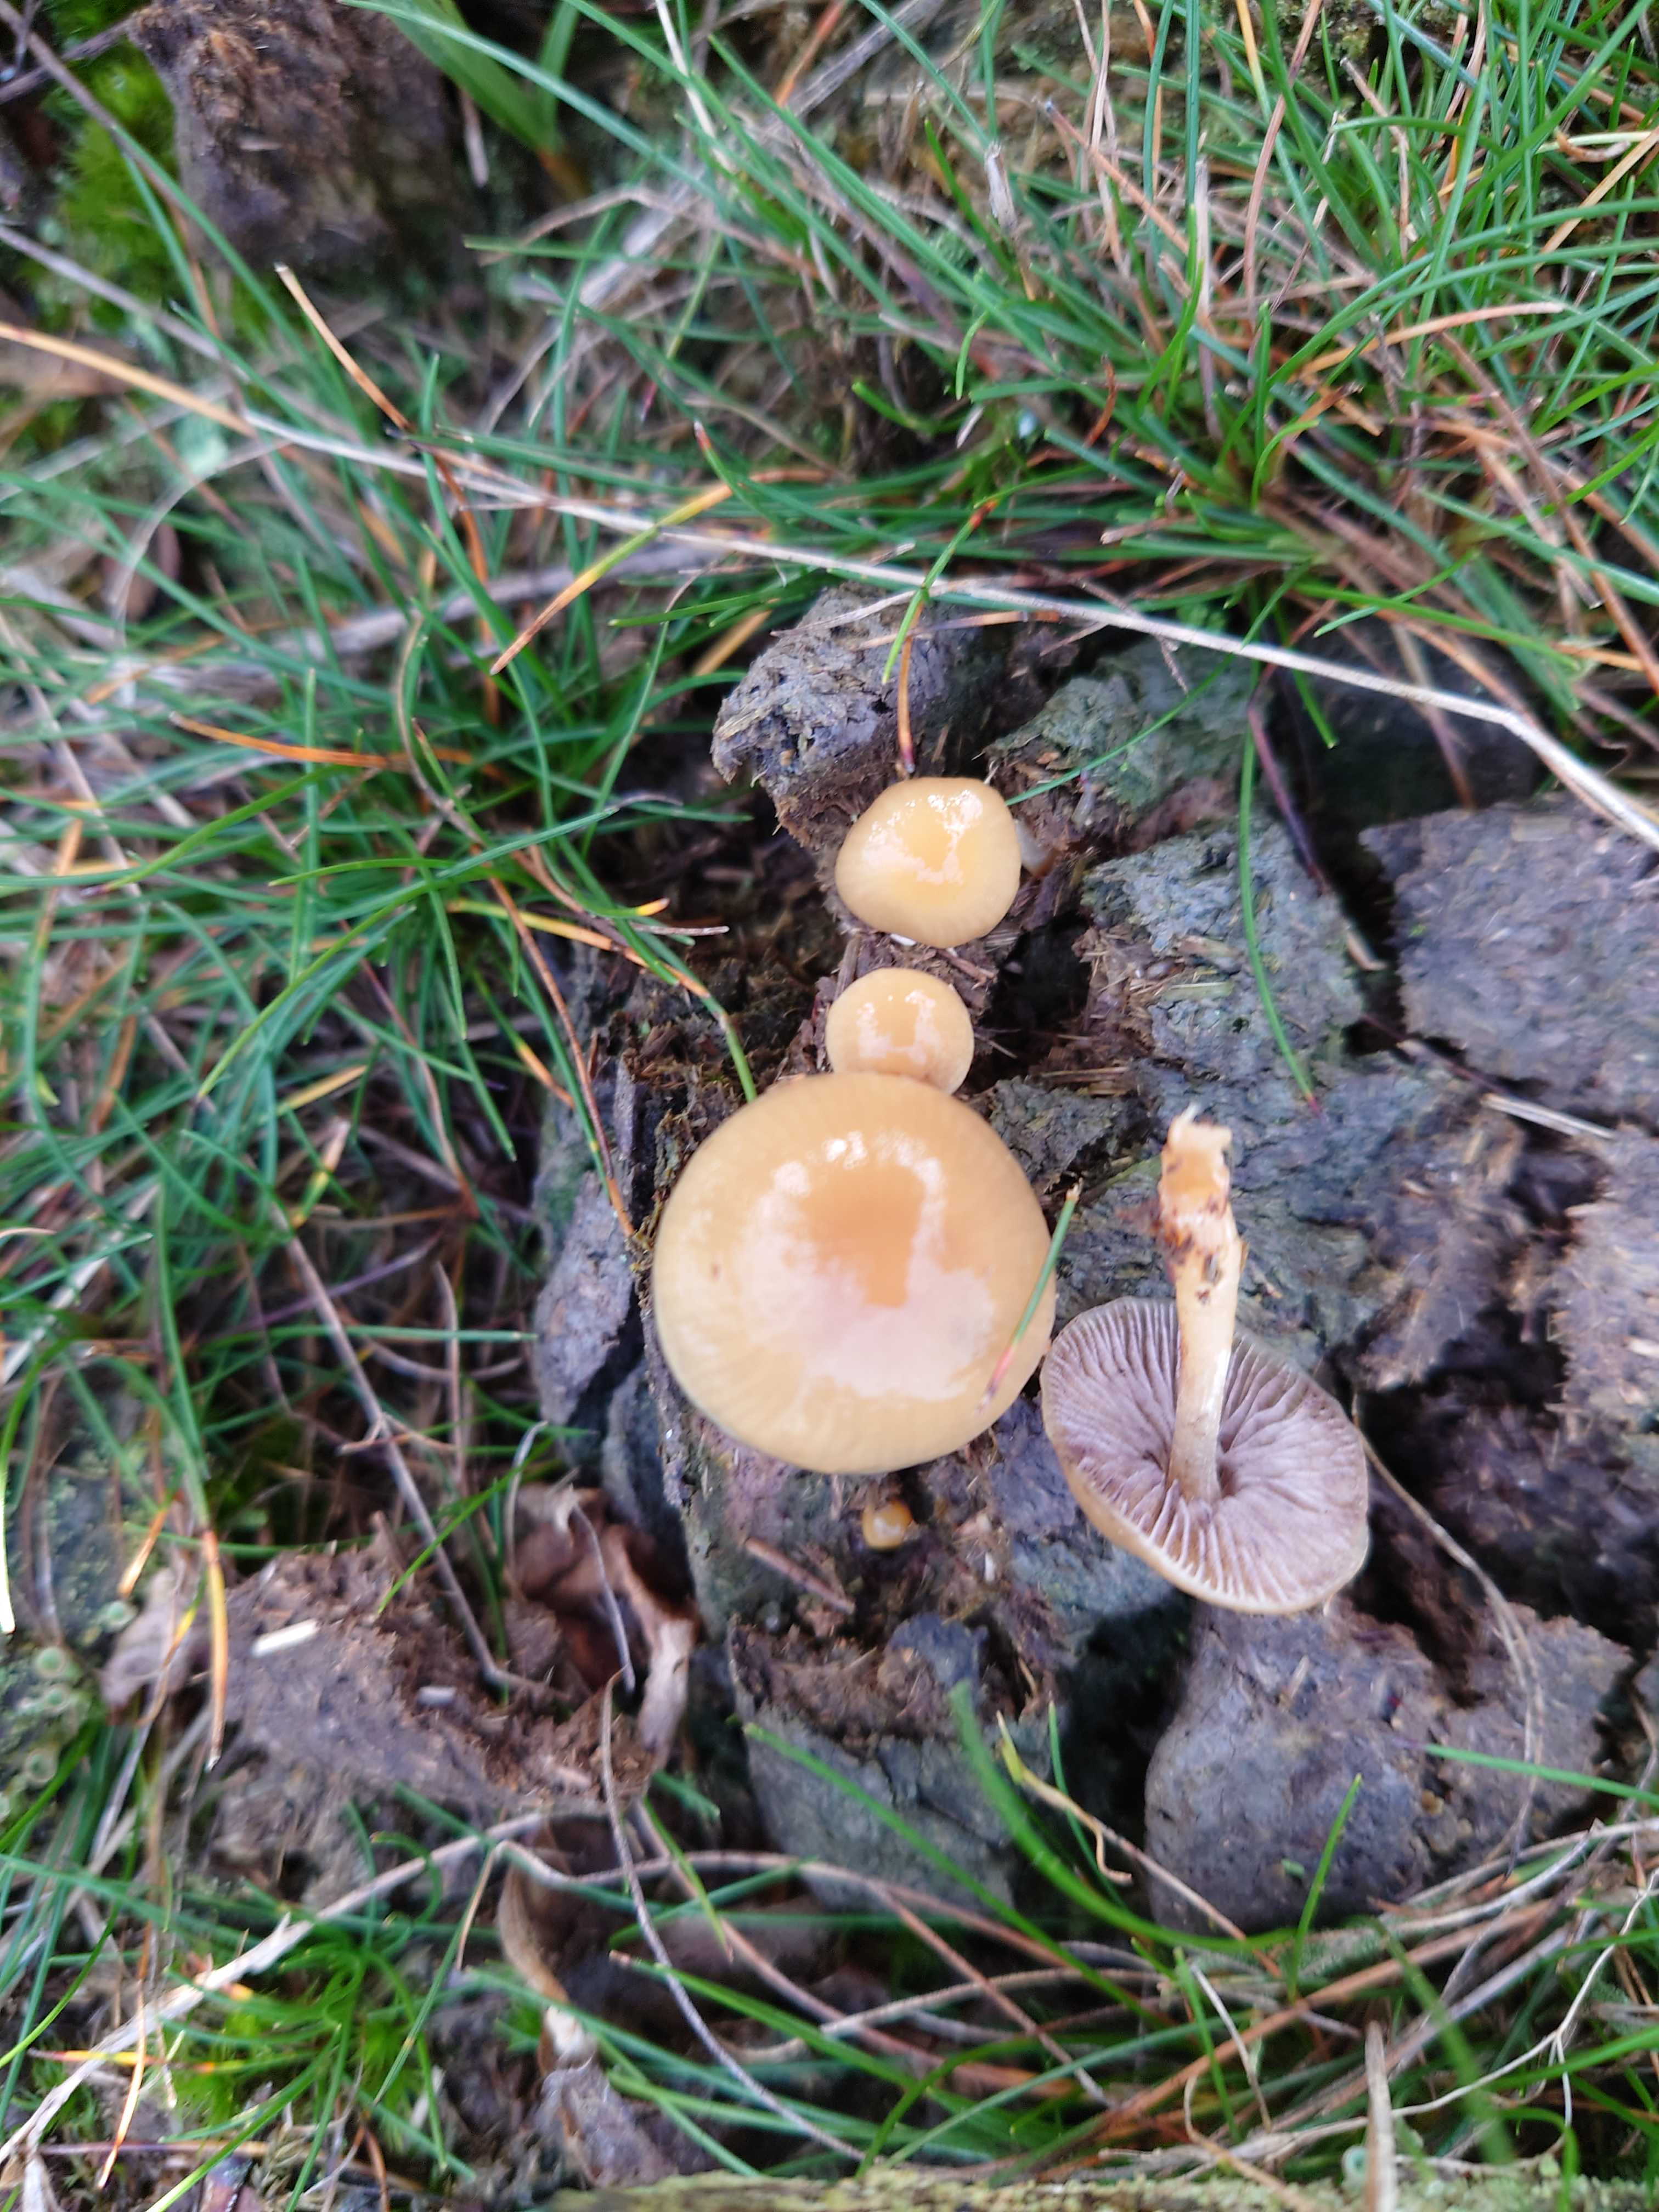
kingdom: Fungi
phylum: Basidiomycota
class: Agaricomycetes
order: Agaricales
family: Strophariaceae
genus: Protostropharia
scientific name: Protostropharia semiglobata
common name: halvkugleformet bredblad
